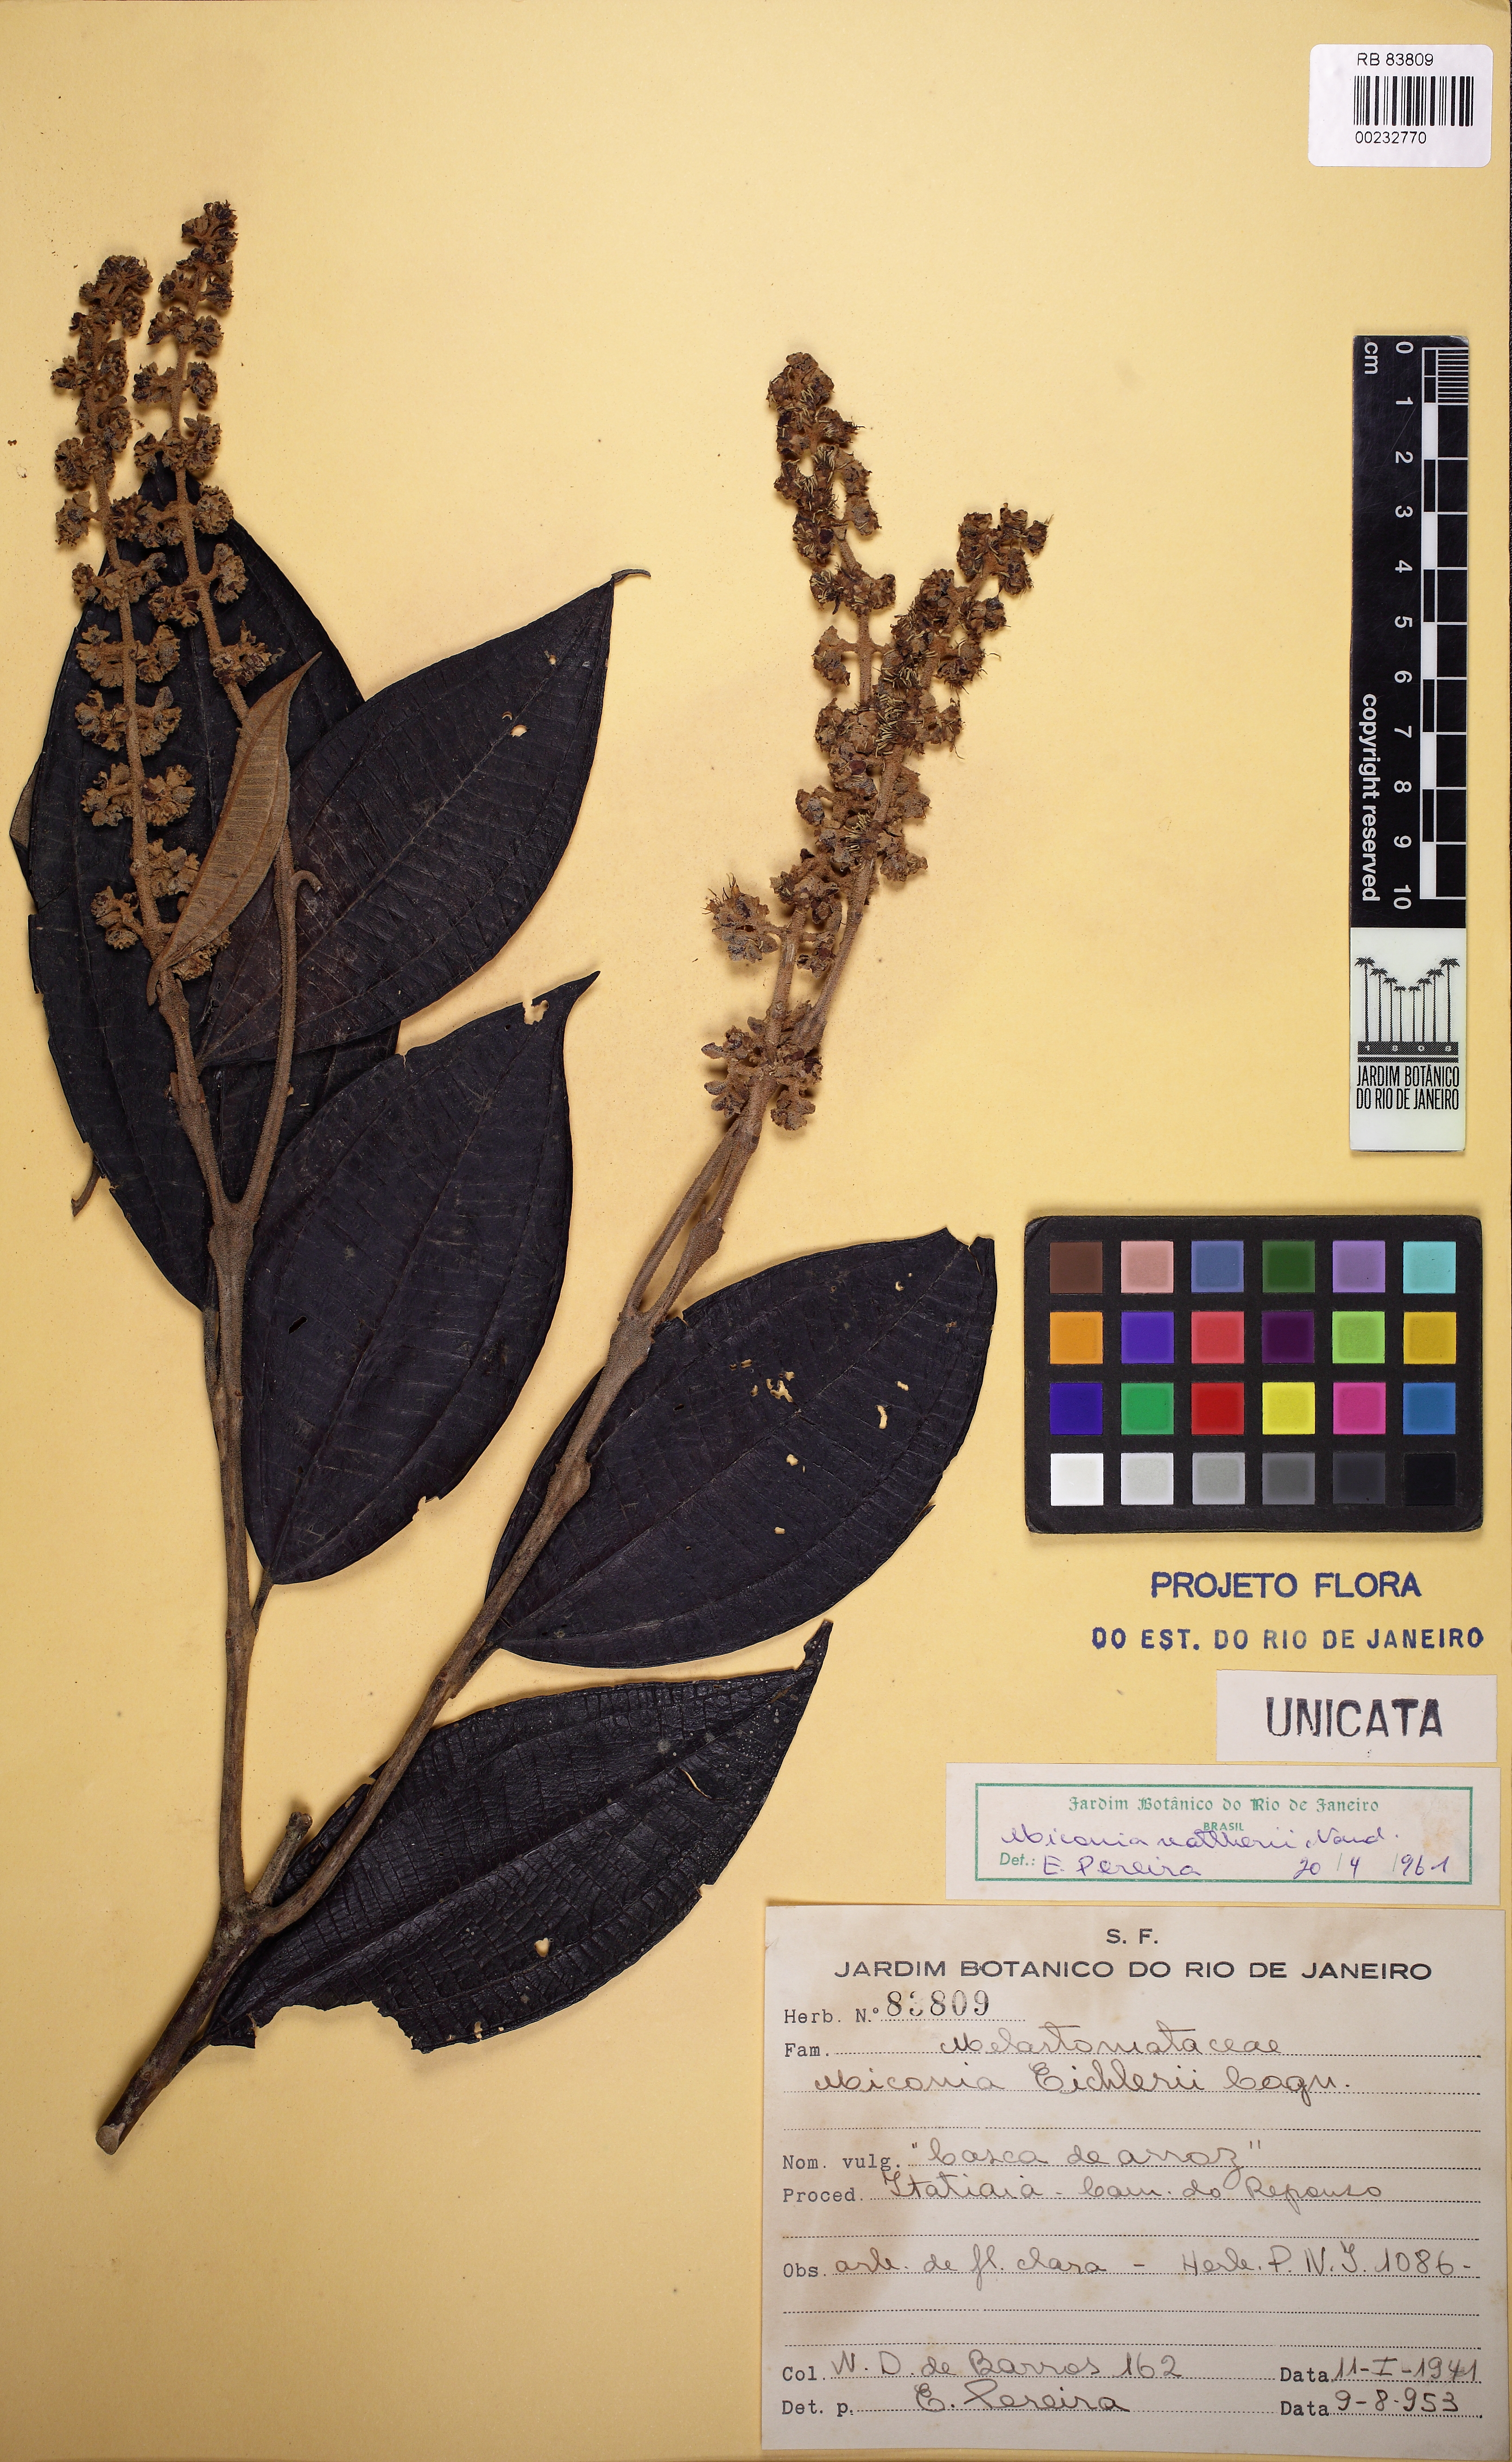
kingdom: Plantae
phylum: Tracheophyta
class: Magnoliopsida
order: Myrtales
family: Melastomataceae
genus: Miconia
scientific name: Miconia valtheri
